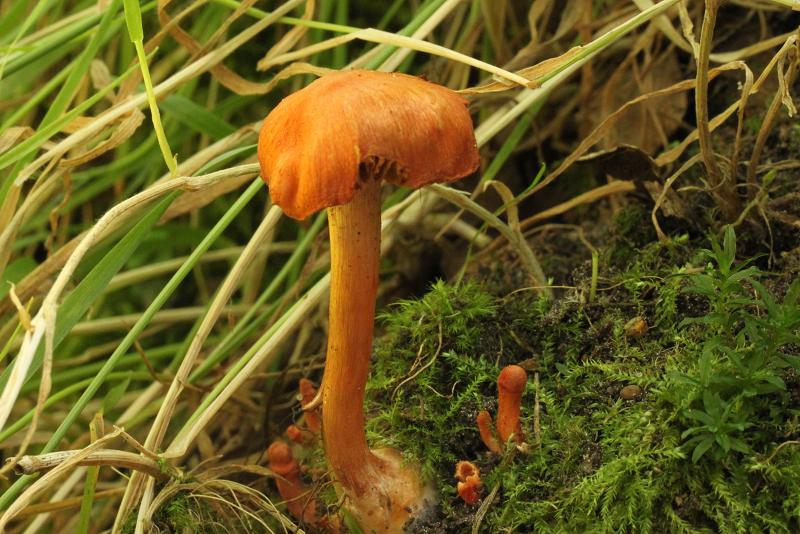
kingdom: Fungi
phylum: Basidiomycota
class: Agaricomycetes
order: Agaricales
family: Cortinariaceae
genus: Cortinarius
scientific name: Cortinarius uliginosus
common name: mose-slørhat
